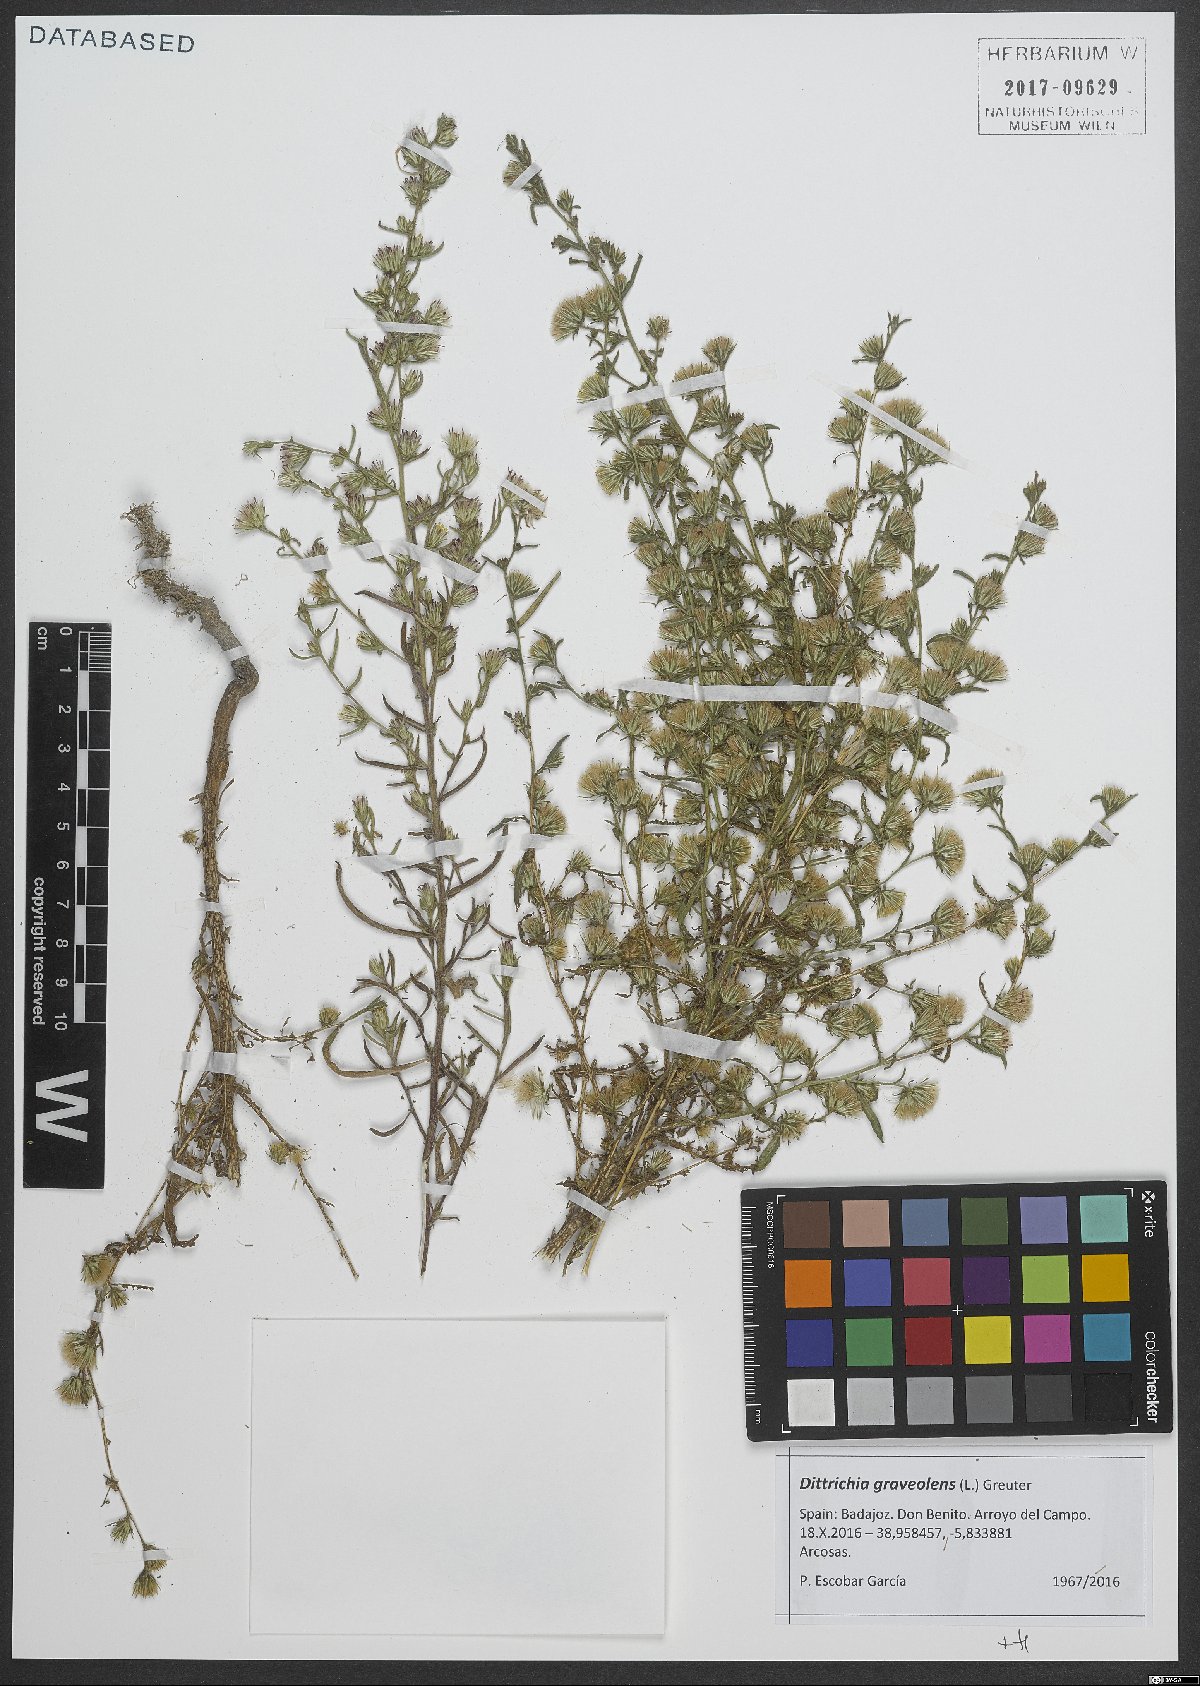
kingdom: Plantae
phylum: Tracheophyta
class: Magnoliopsida
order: Asterales
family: Asteraceae
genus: Dittrichia
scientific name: Dittrichia graveolens
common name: Stinking fleabane
